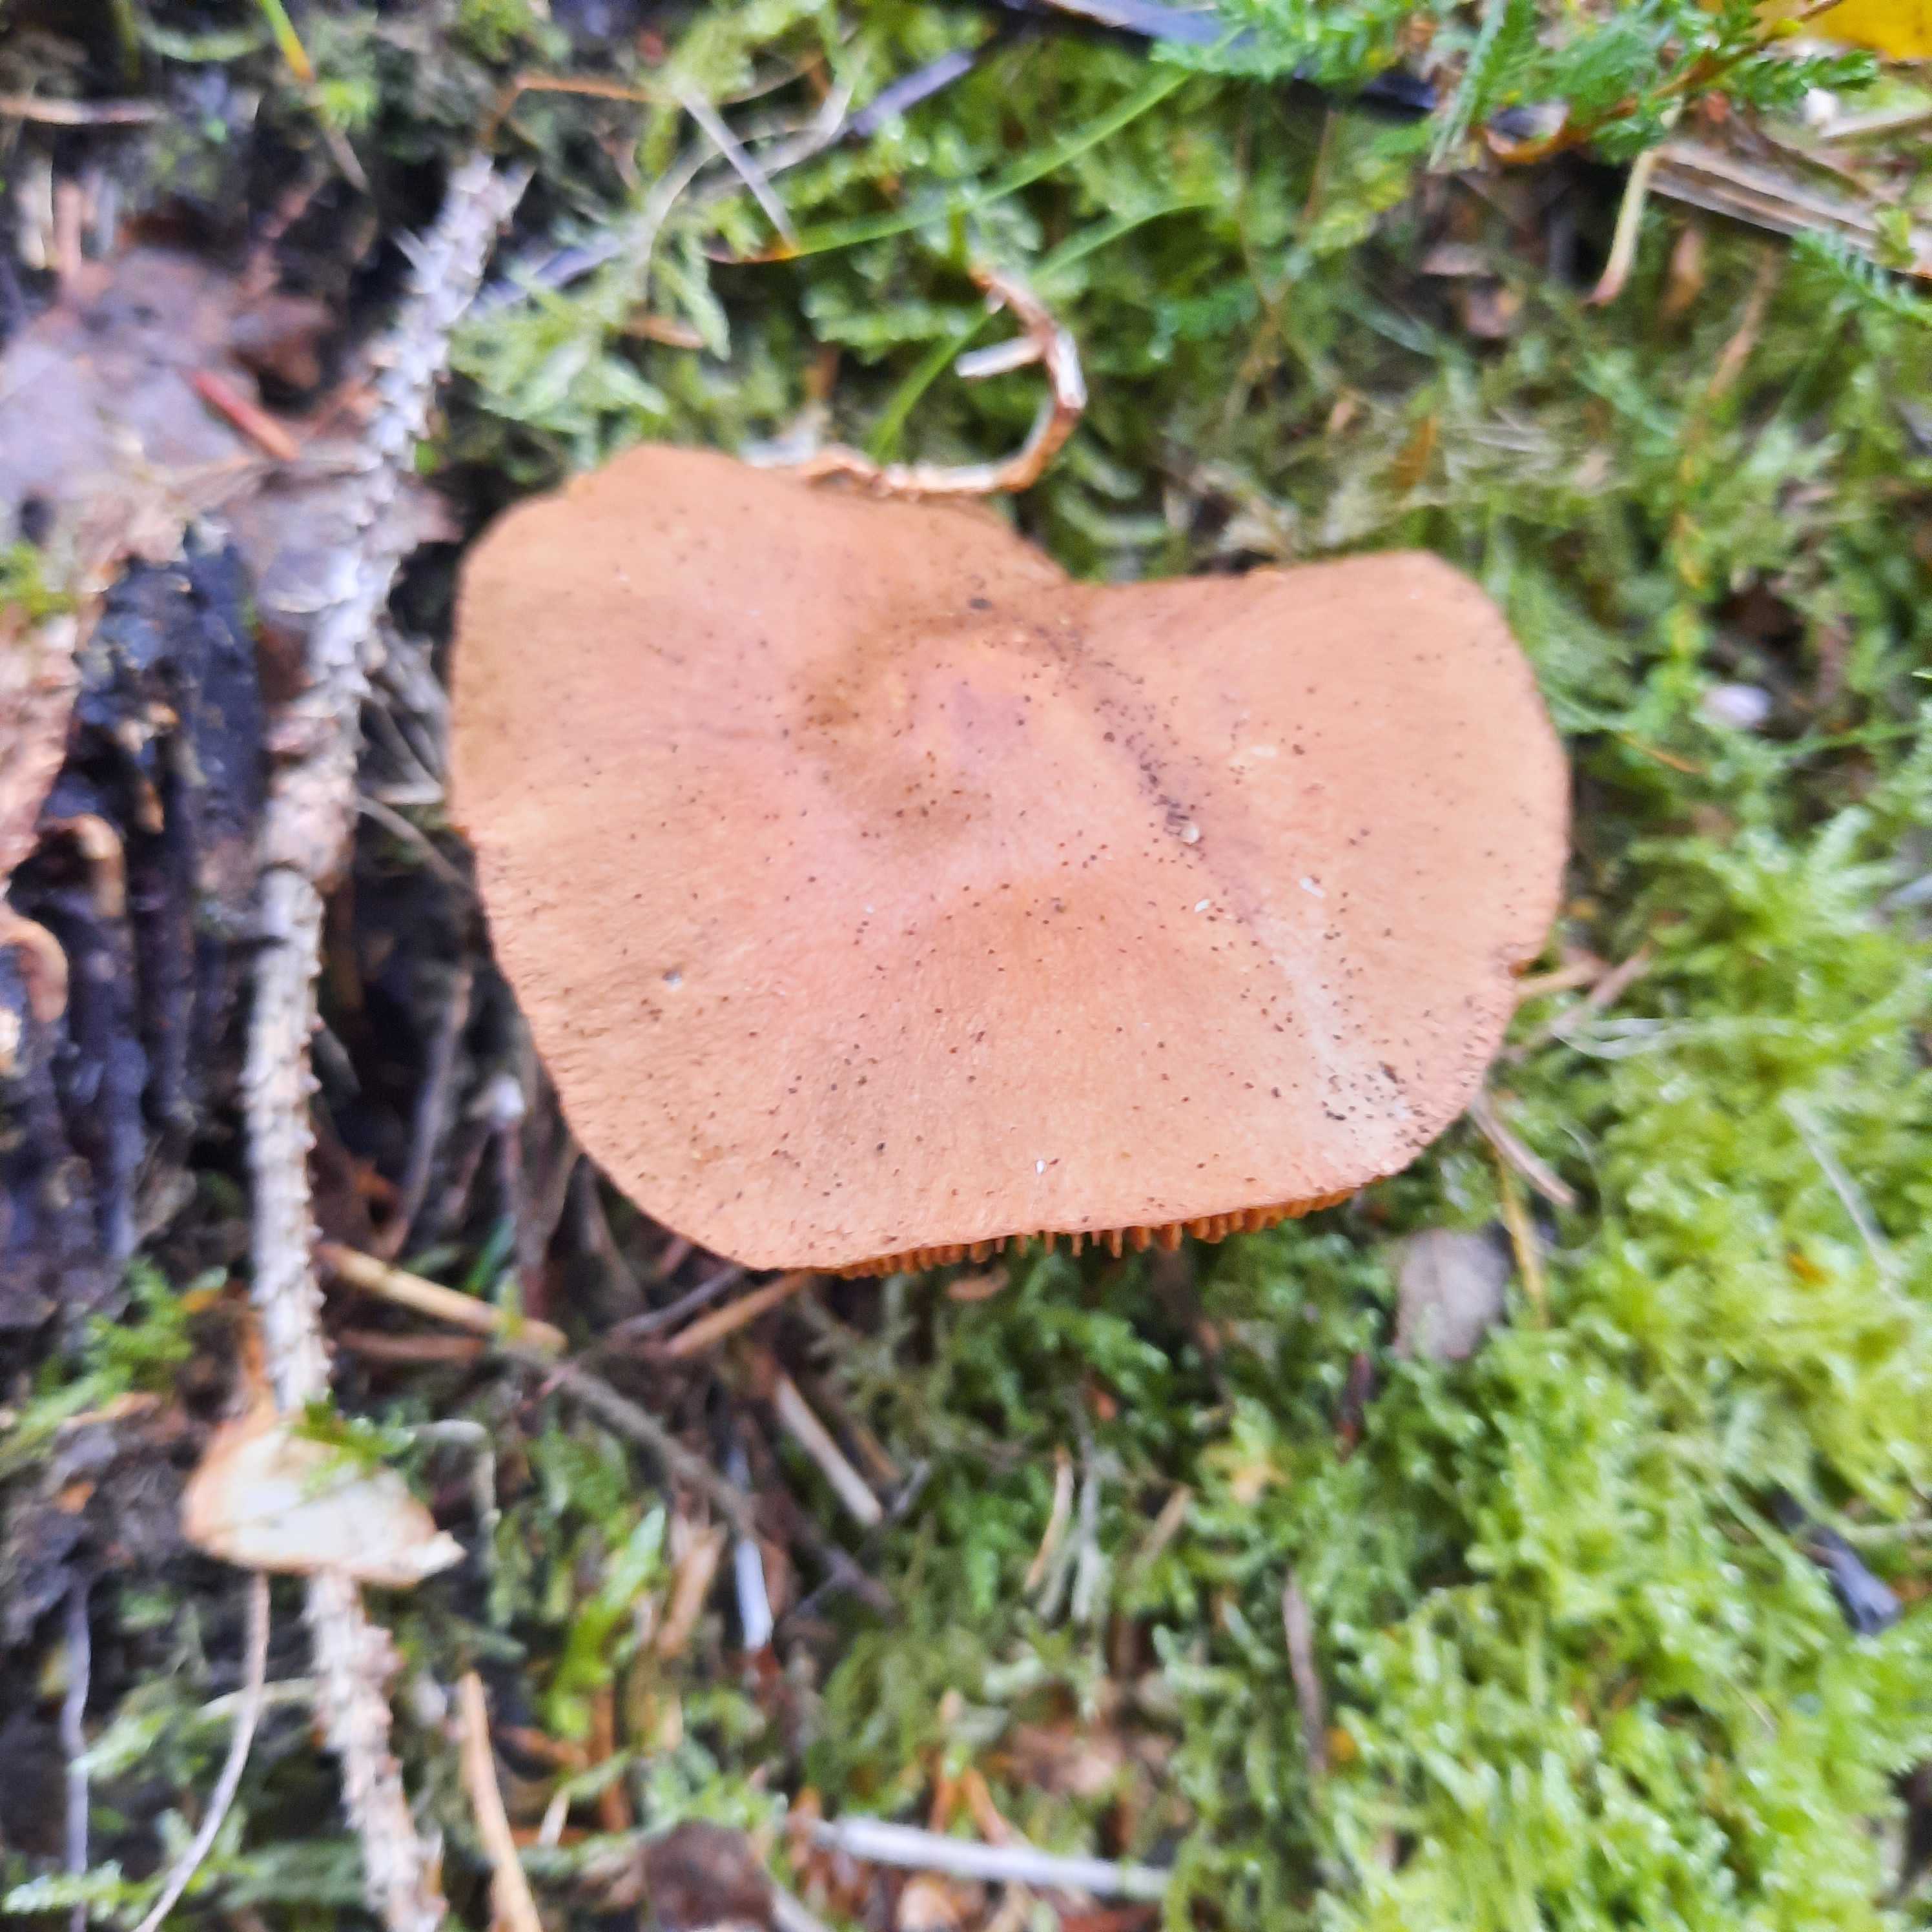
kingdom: Fungi
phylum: Basidiomycota
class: Agaricomycetes
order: Agaricales
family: Cortinariaceae
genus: Cortinarius
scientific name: Cortinarius
